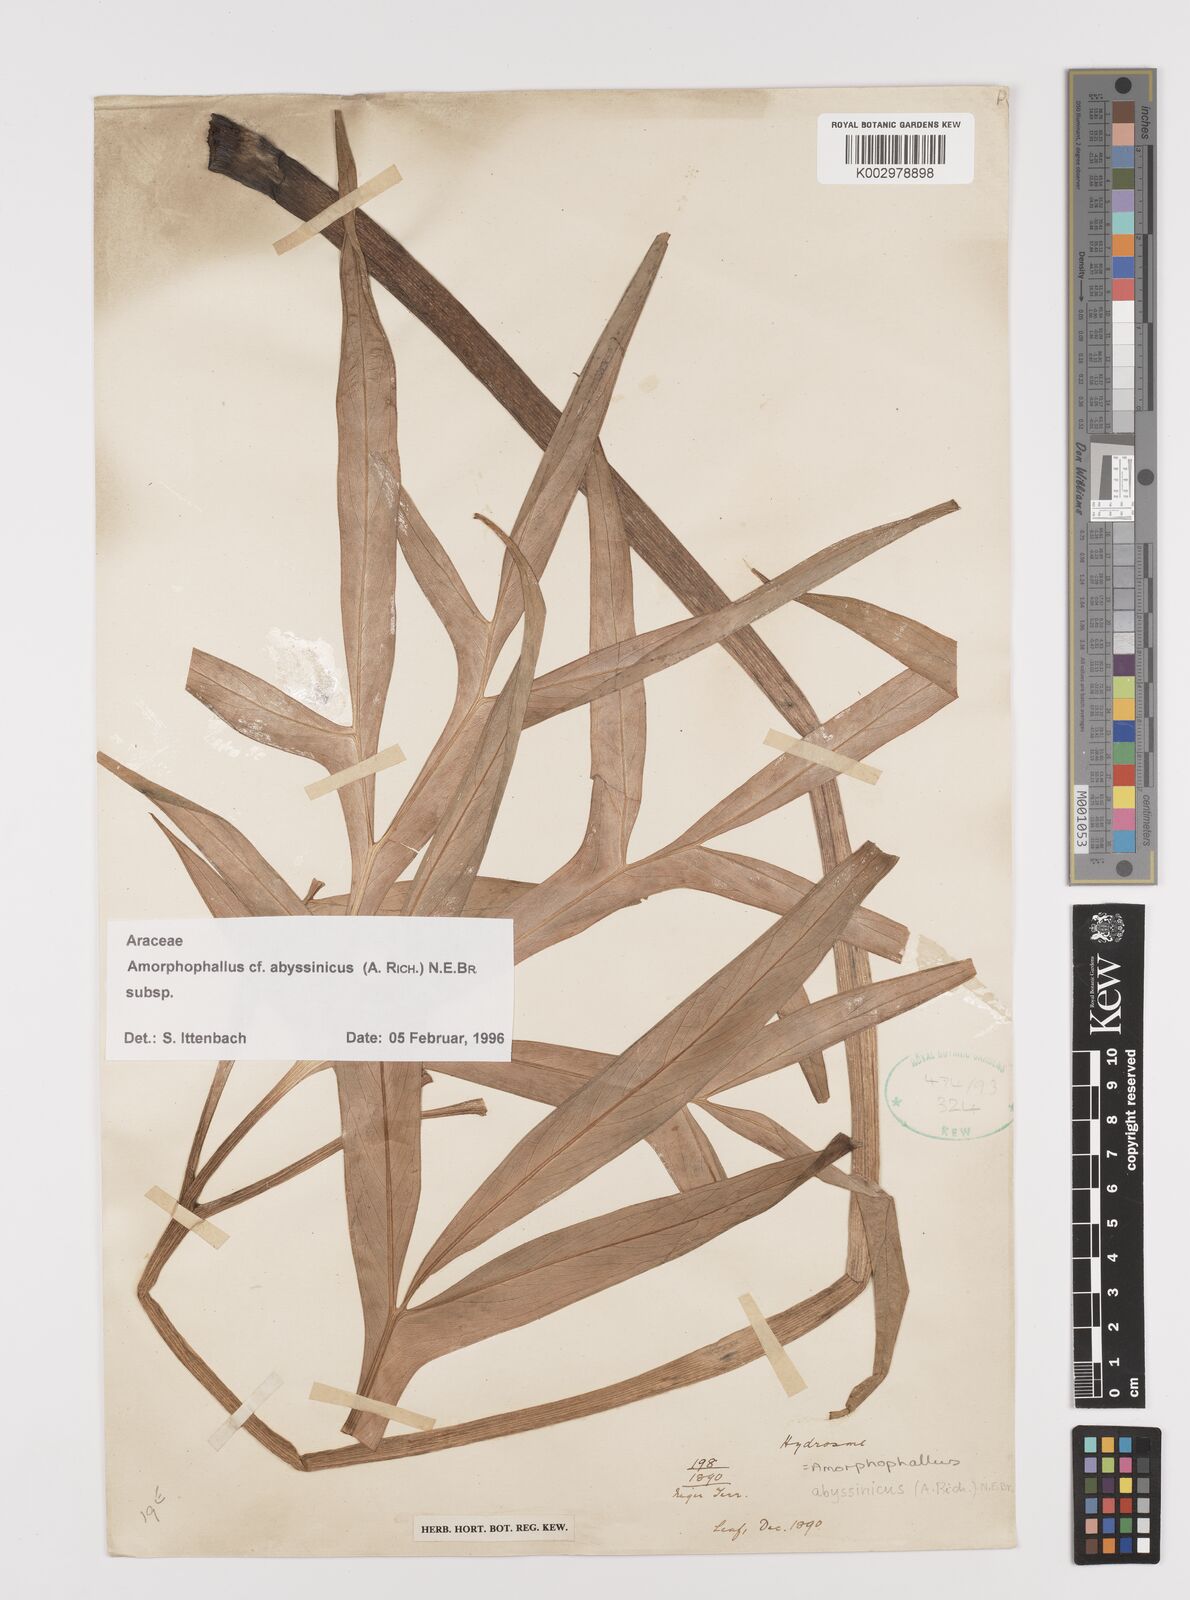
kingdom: Plantae
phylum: Tracheophyta
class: Liliopsida
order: Alismatales
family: Araceae
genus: Amorphophallus
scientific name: Amorphophallus abyssinicus
